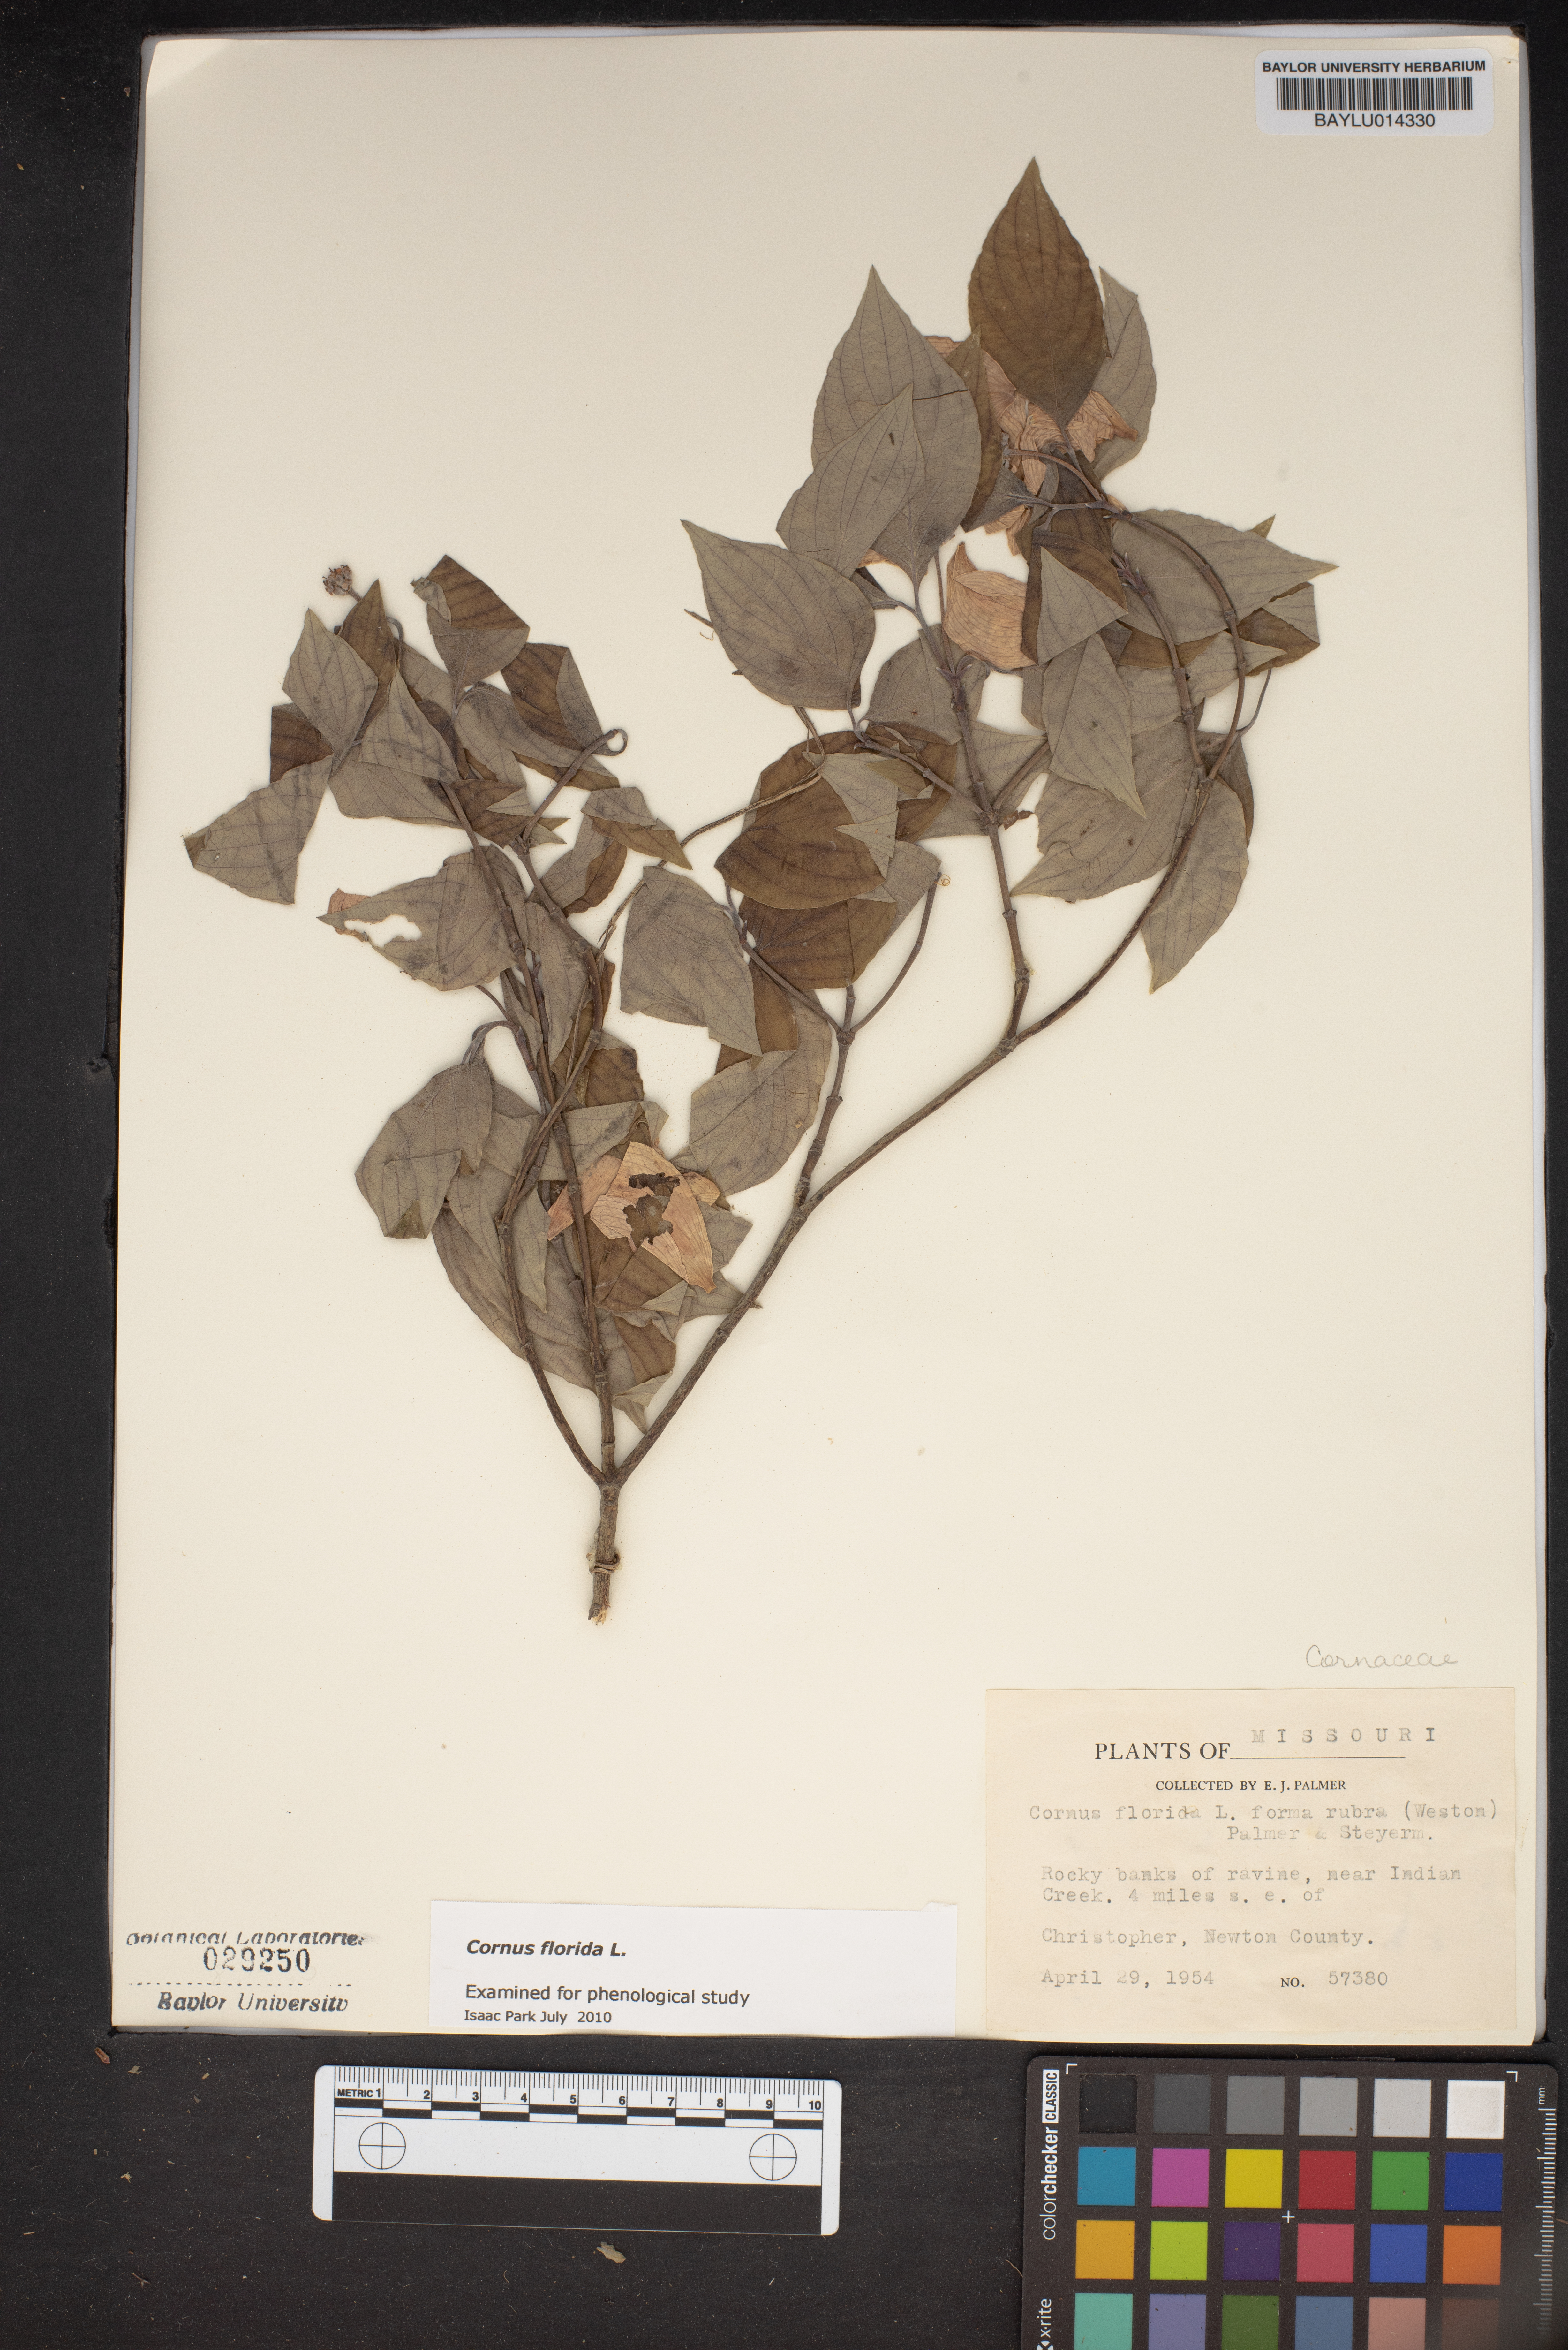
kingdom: Plantae
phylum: Tracheophyta
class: Magnoliopsida
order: Cornales
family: Cornaceae
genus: Cornus
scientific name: Cornus florida
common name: Flowering dogwood
